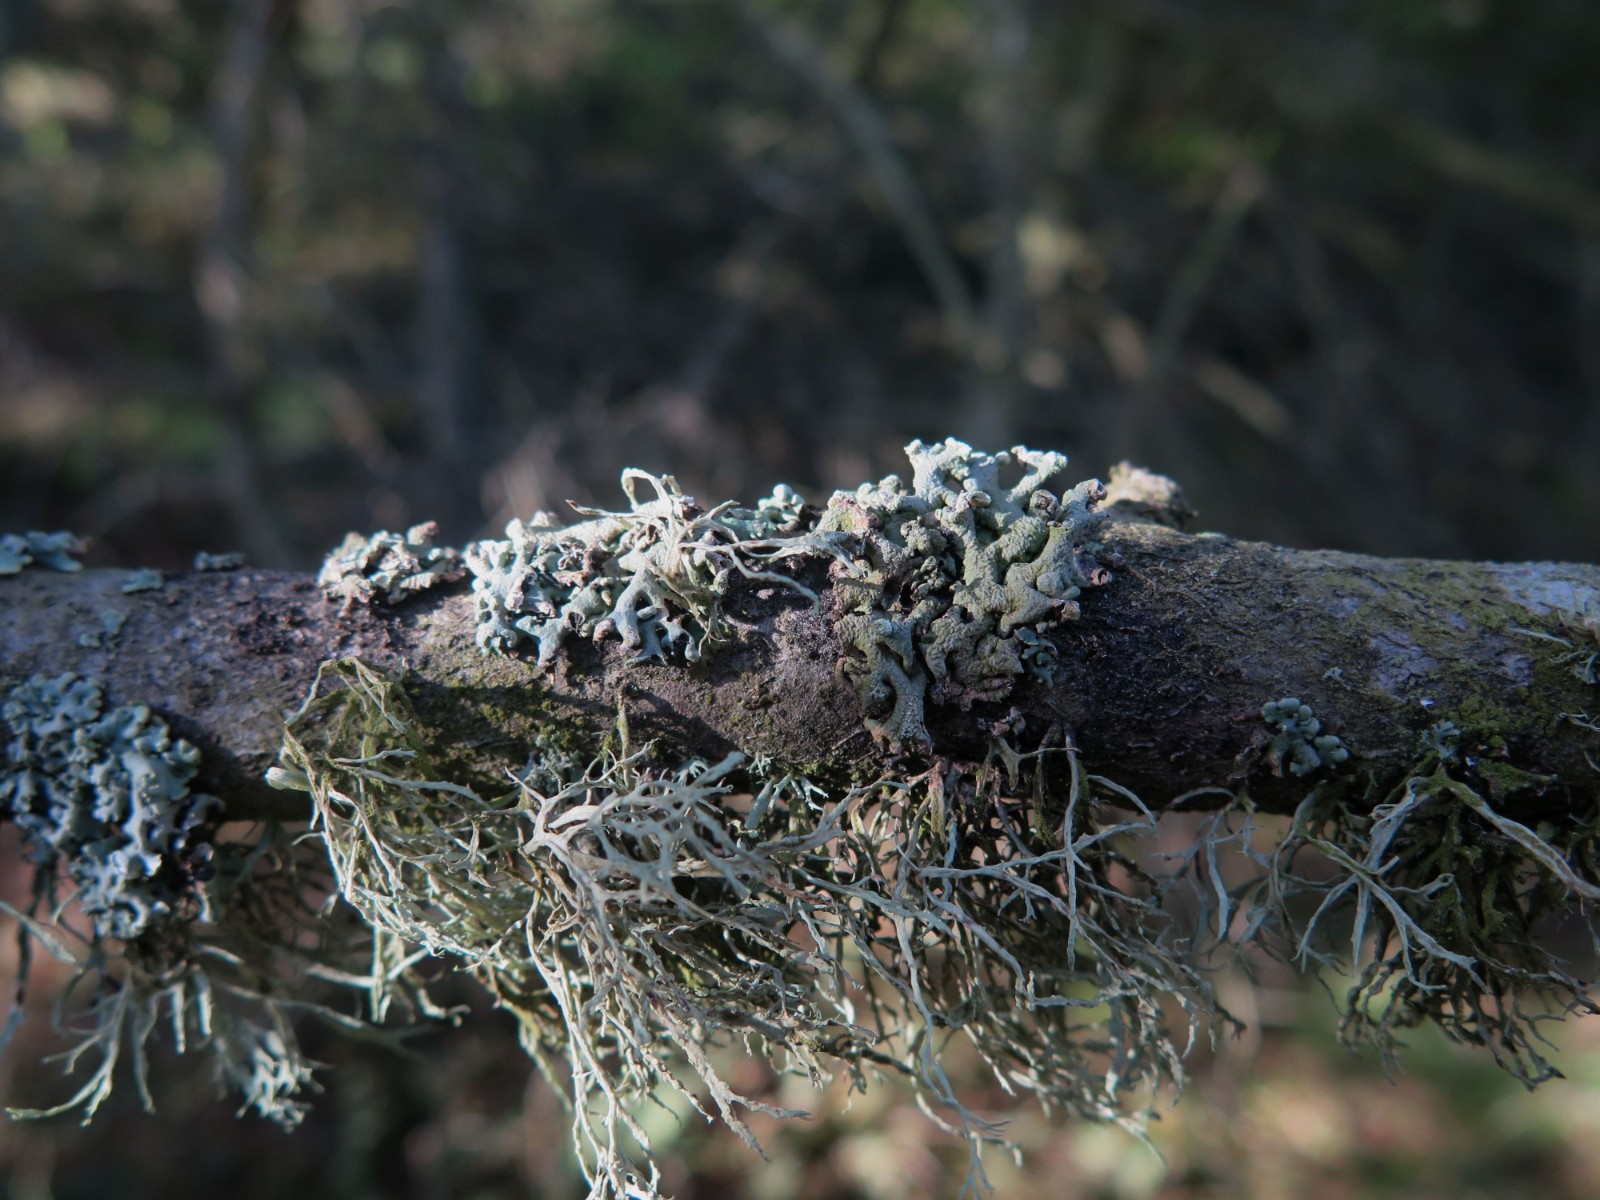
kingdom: Fungi
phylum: Ascomycota
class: Lecanoromycetes
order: Lecanorales
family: Parmeliaceae
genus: Hypogymnia
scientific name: Hypogymnia tubulosa
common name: finger-kvistlav
